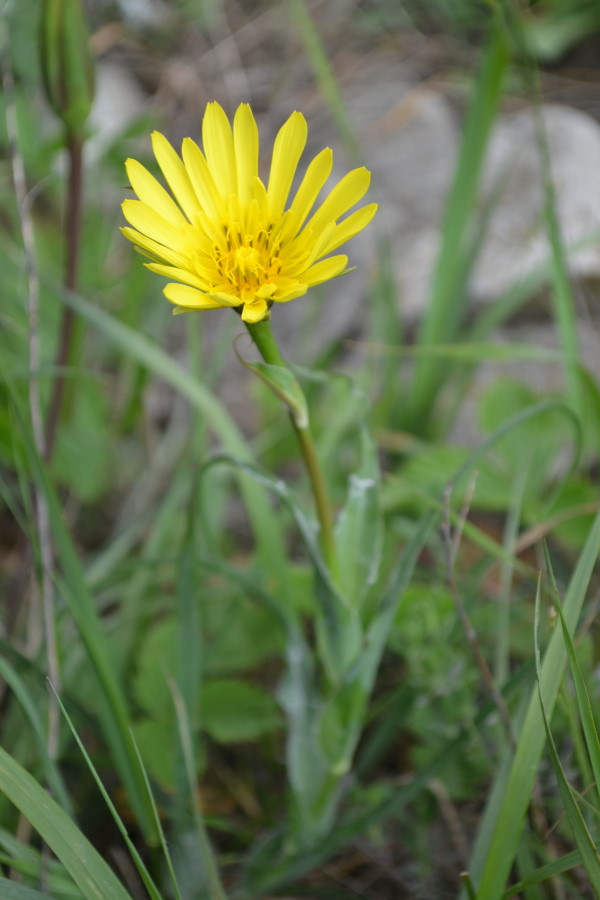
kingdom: Plantae
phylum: Tracheophyta
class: Magnoliopsida
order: Asterales
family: Asteraceae
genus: Tragopogon
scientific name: Tragopogon tuberosus
